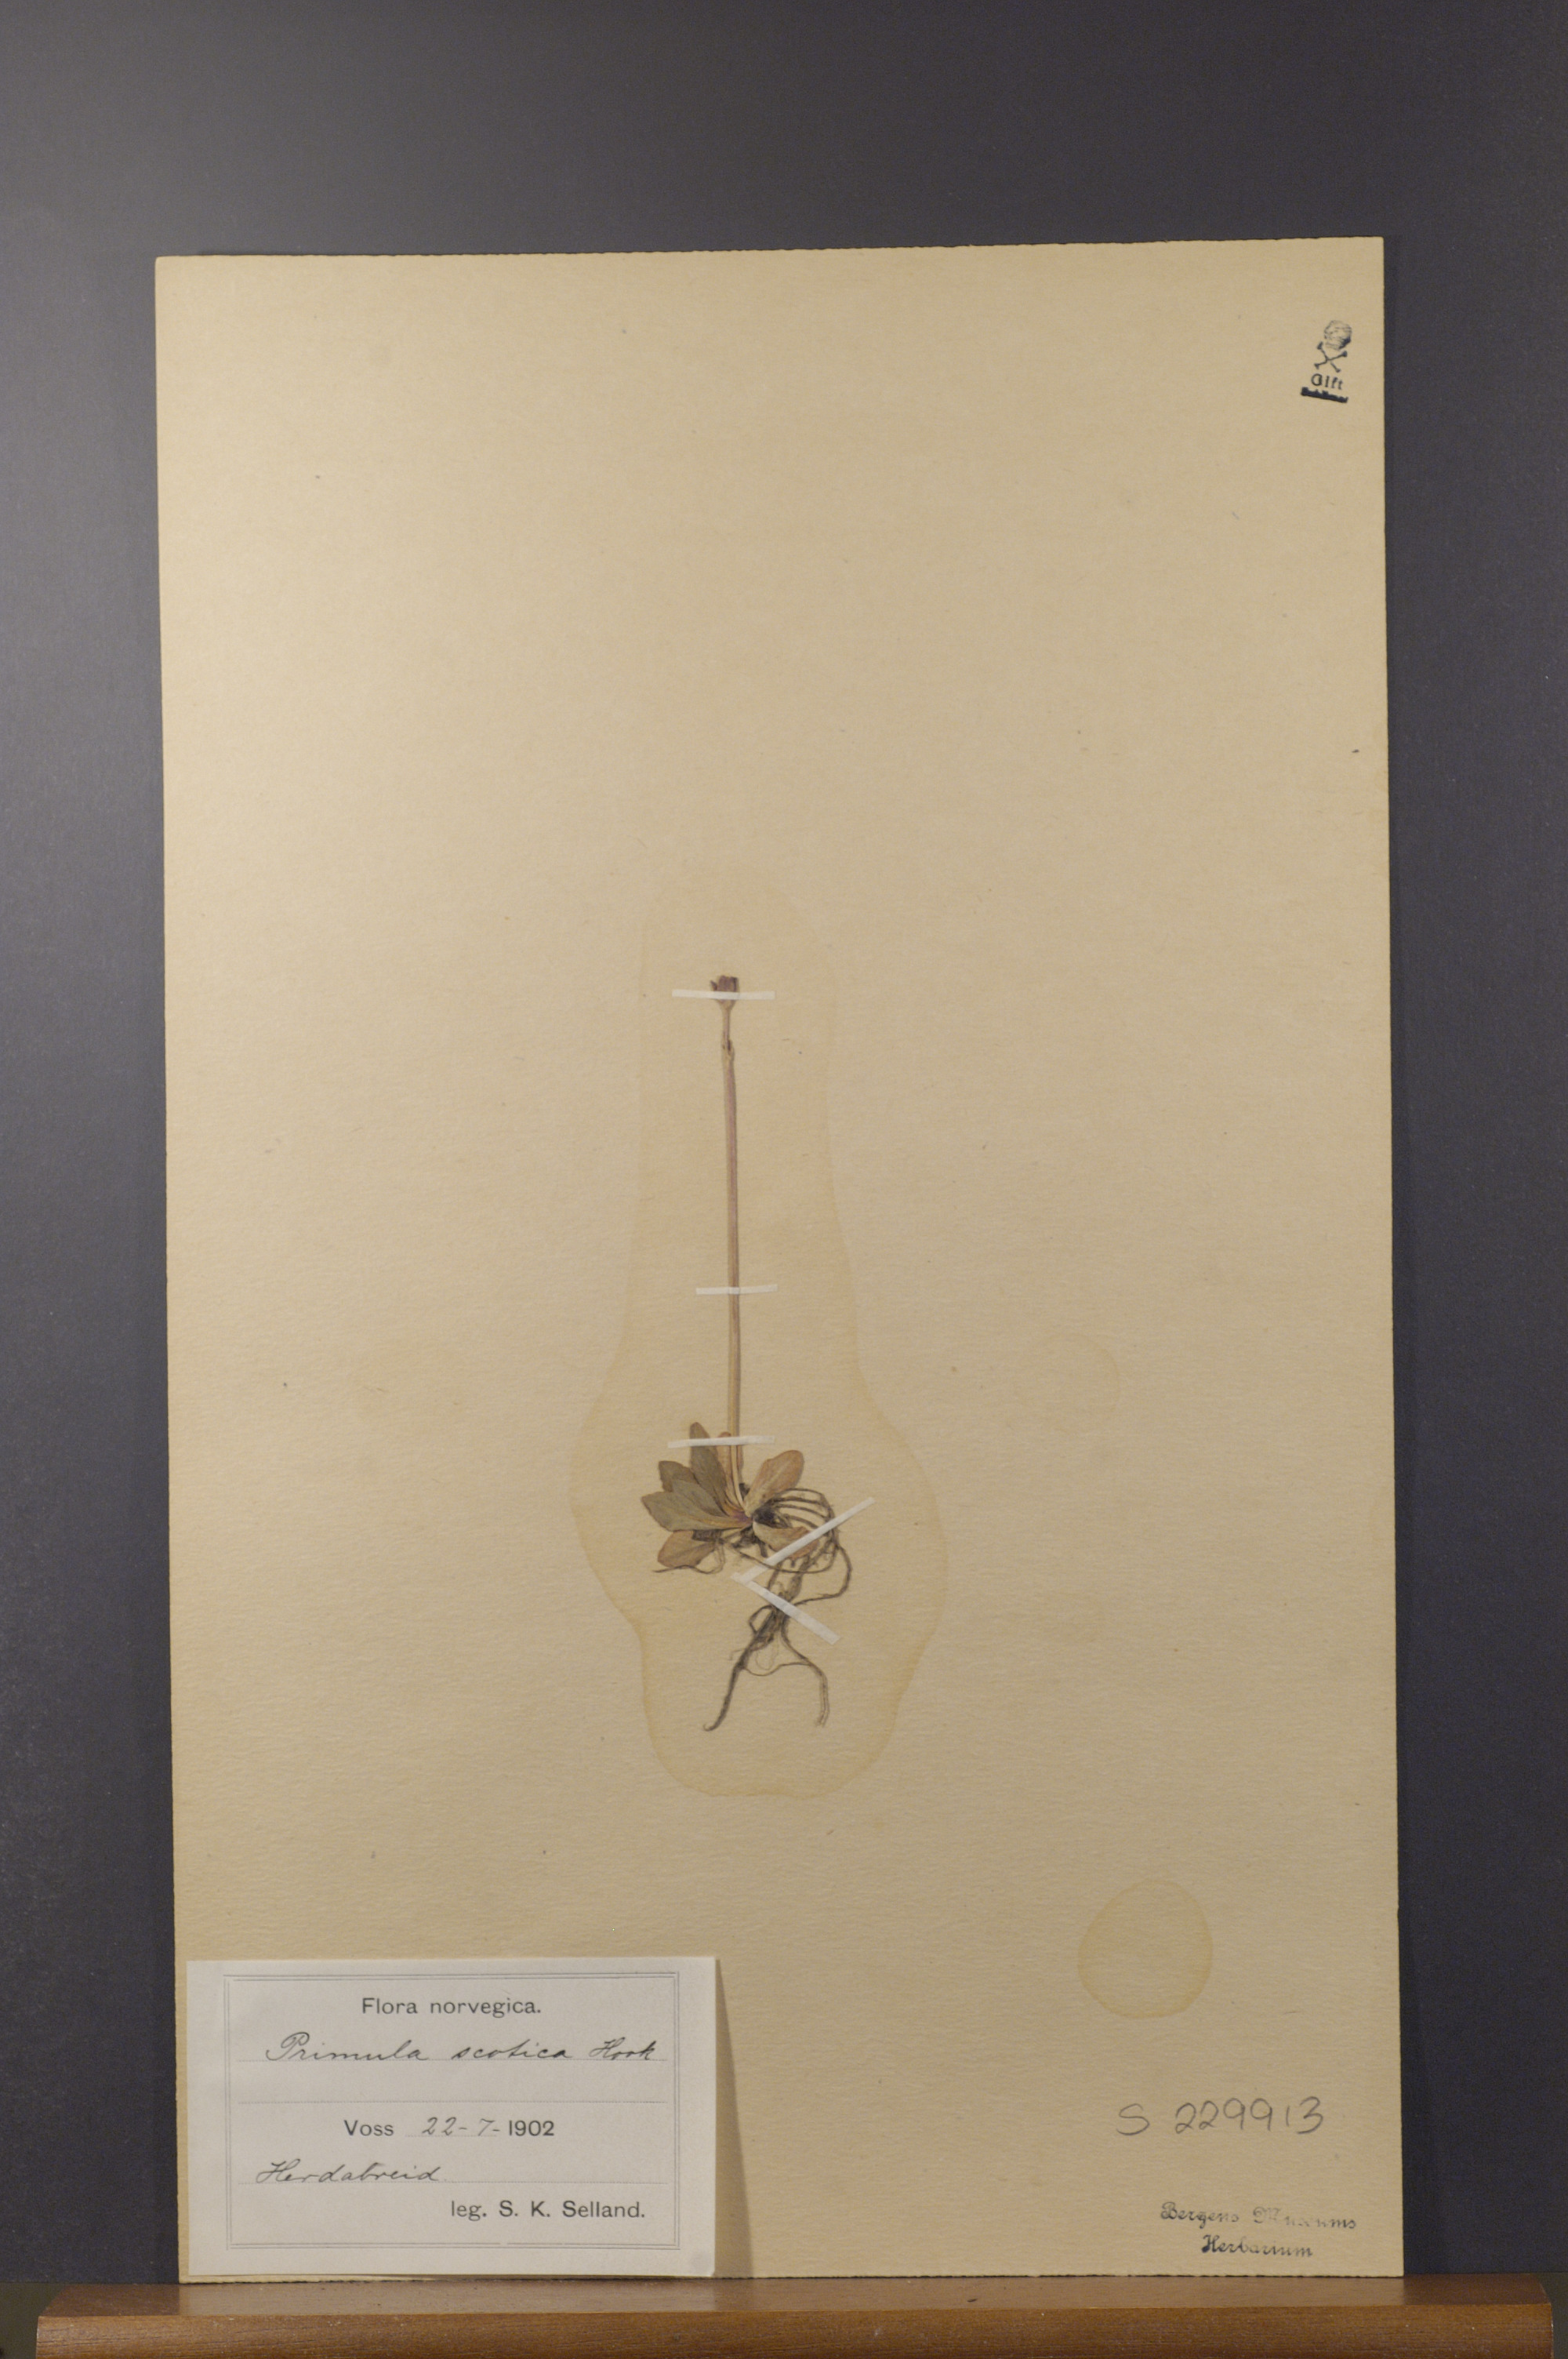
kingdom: Plantae
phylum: Tracheophyta
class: Magnoliopsida
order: Ericales
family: Primulaceae
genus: Primula
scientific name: Primula scotica
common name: Scottish primrose
